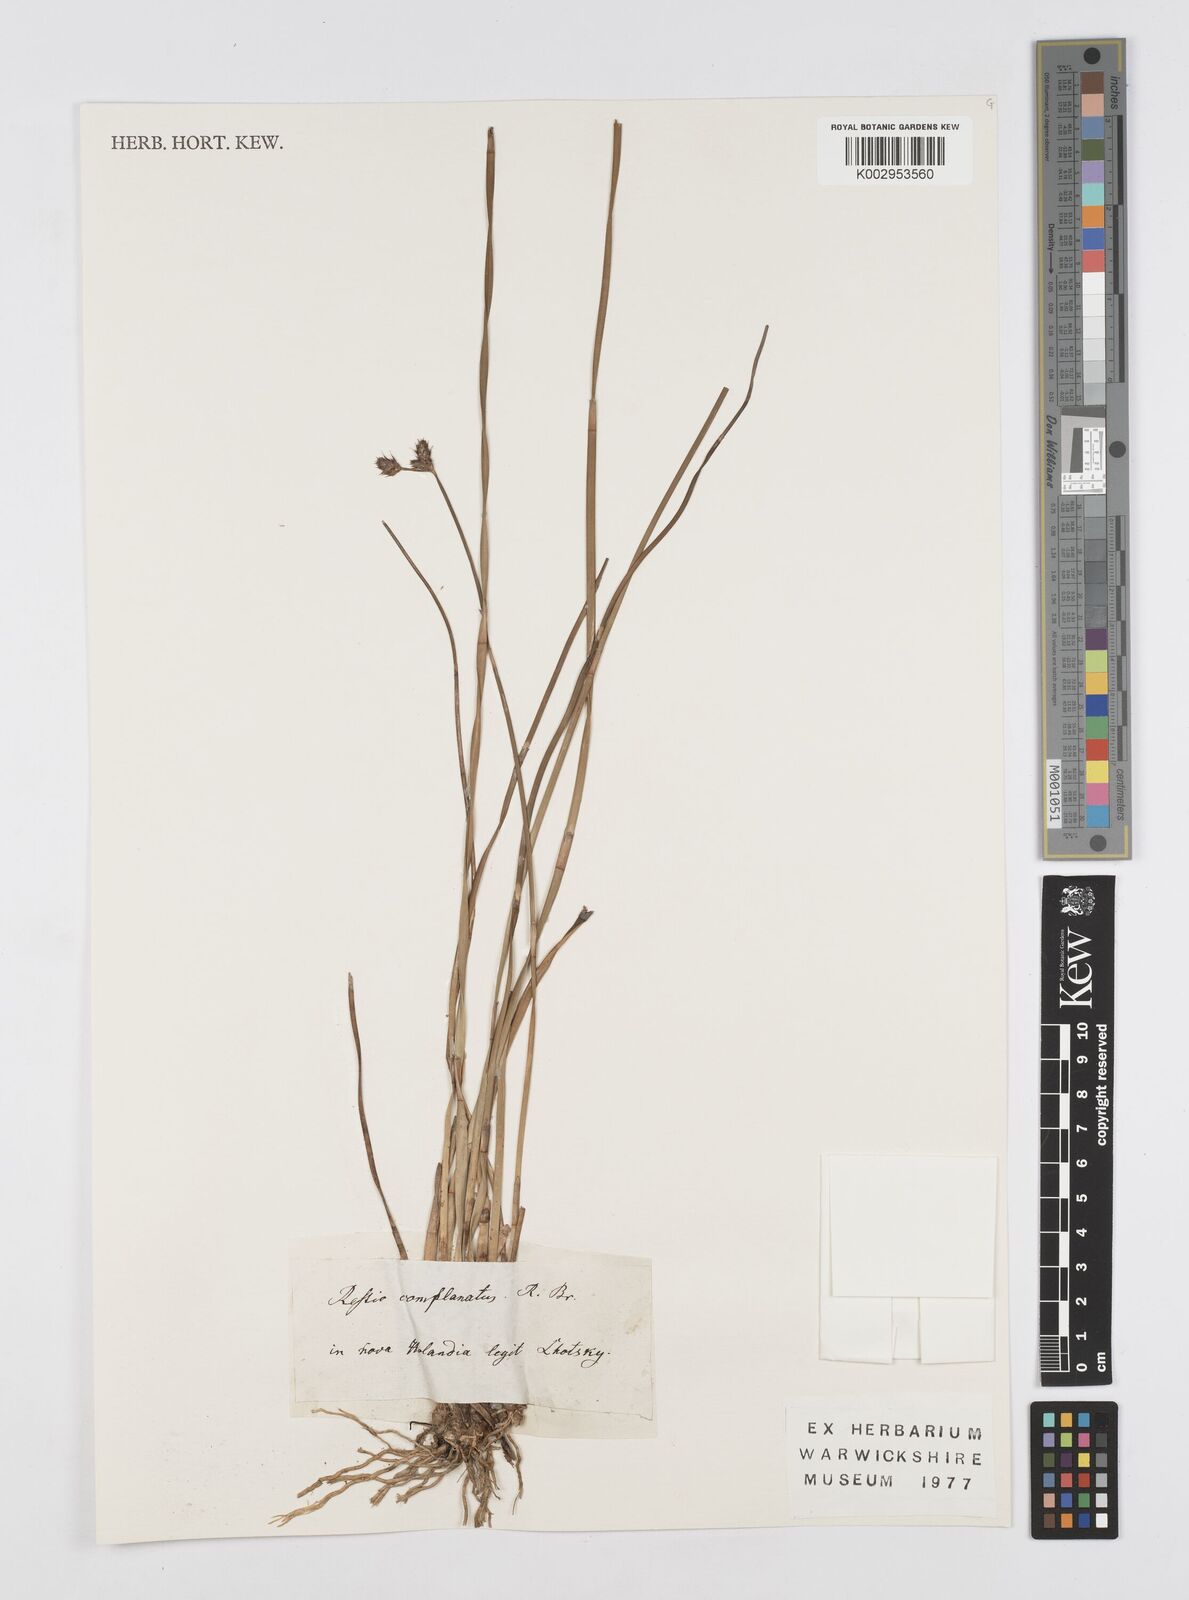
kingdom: Plantae
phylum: Tracheophyta
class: Liliopsida
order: Poales
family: Restionaceae
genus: Eurychorda
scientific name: Eurychorda complanata
